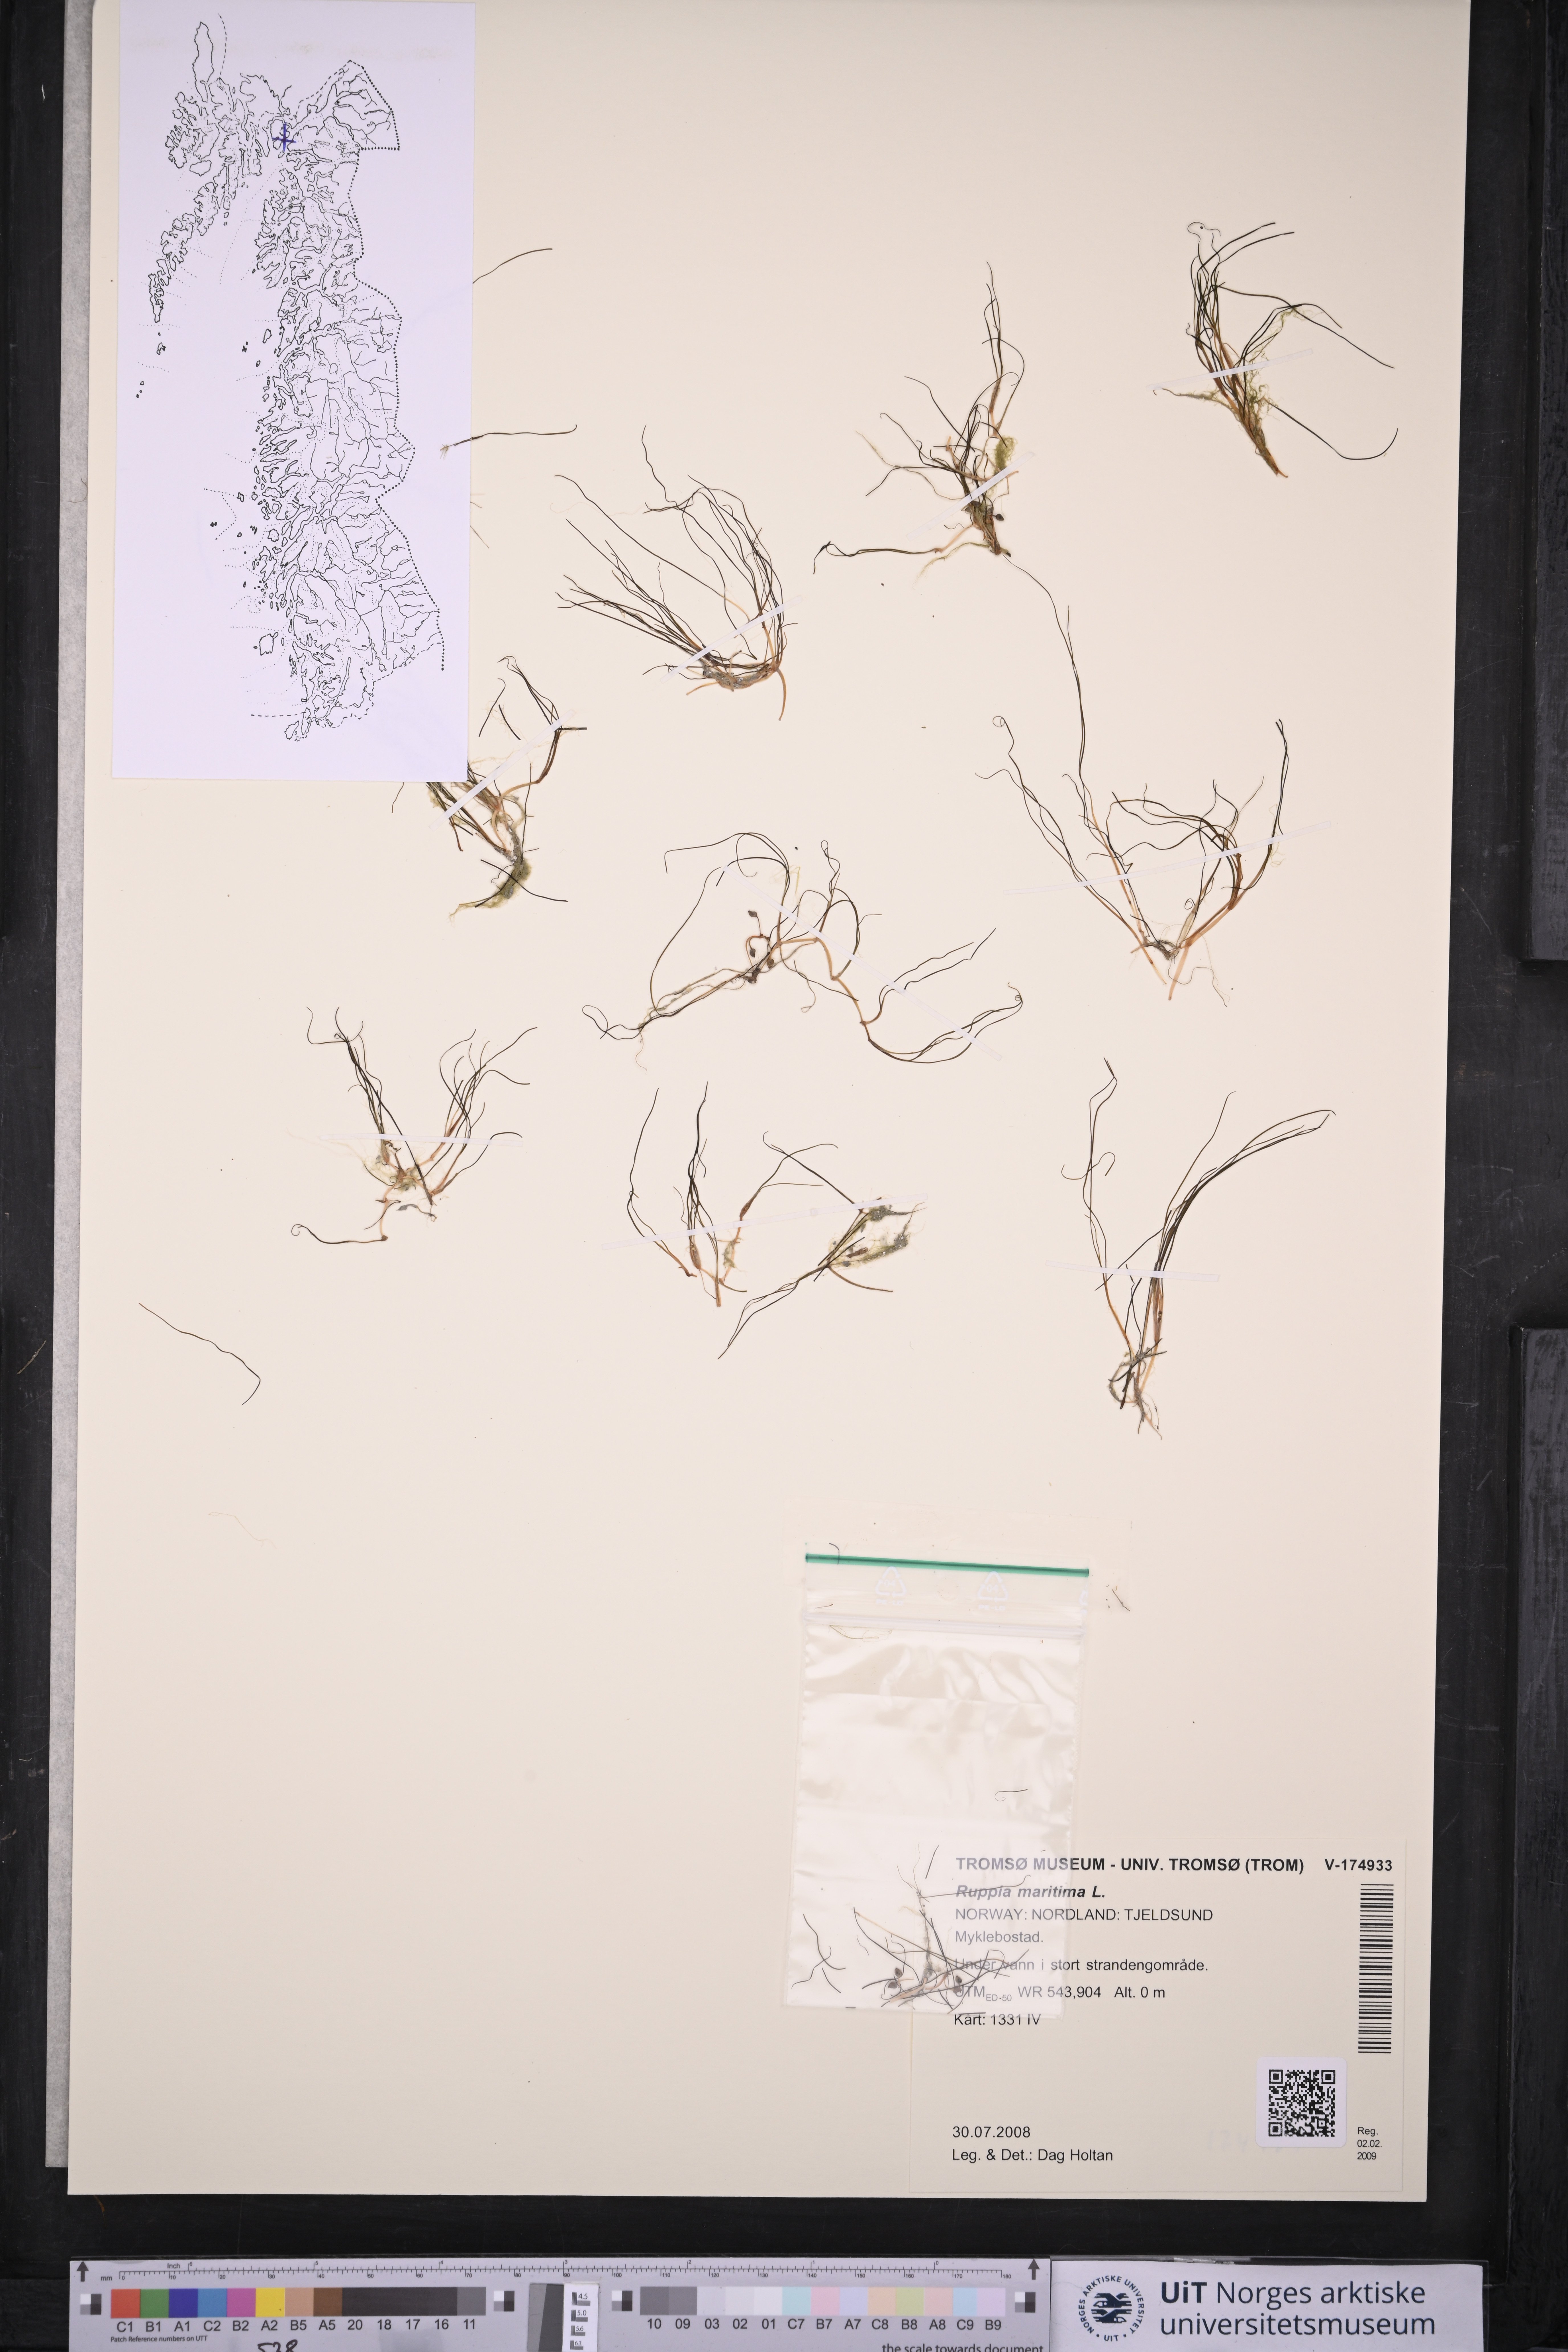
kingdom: Plantae
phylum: Tracheophyta
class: Liliopsida
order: Alismatales
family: Ruppiaceae
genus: Ruppia
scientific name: Ruppia maritima
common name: Beaked tasselweed
